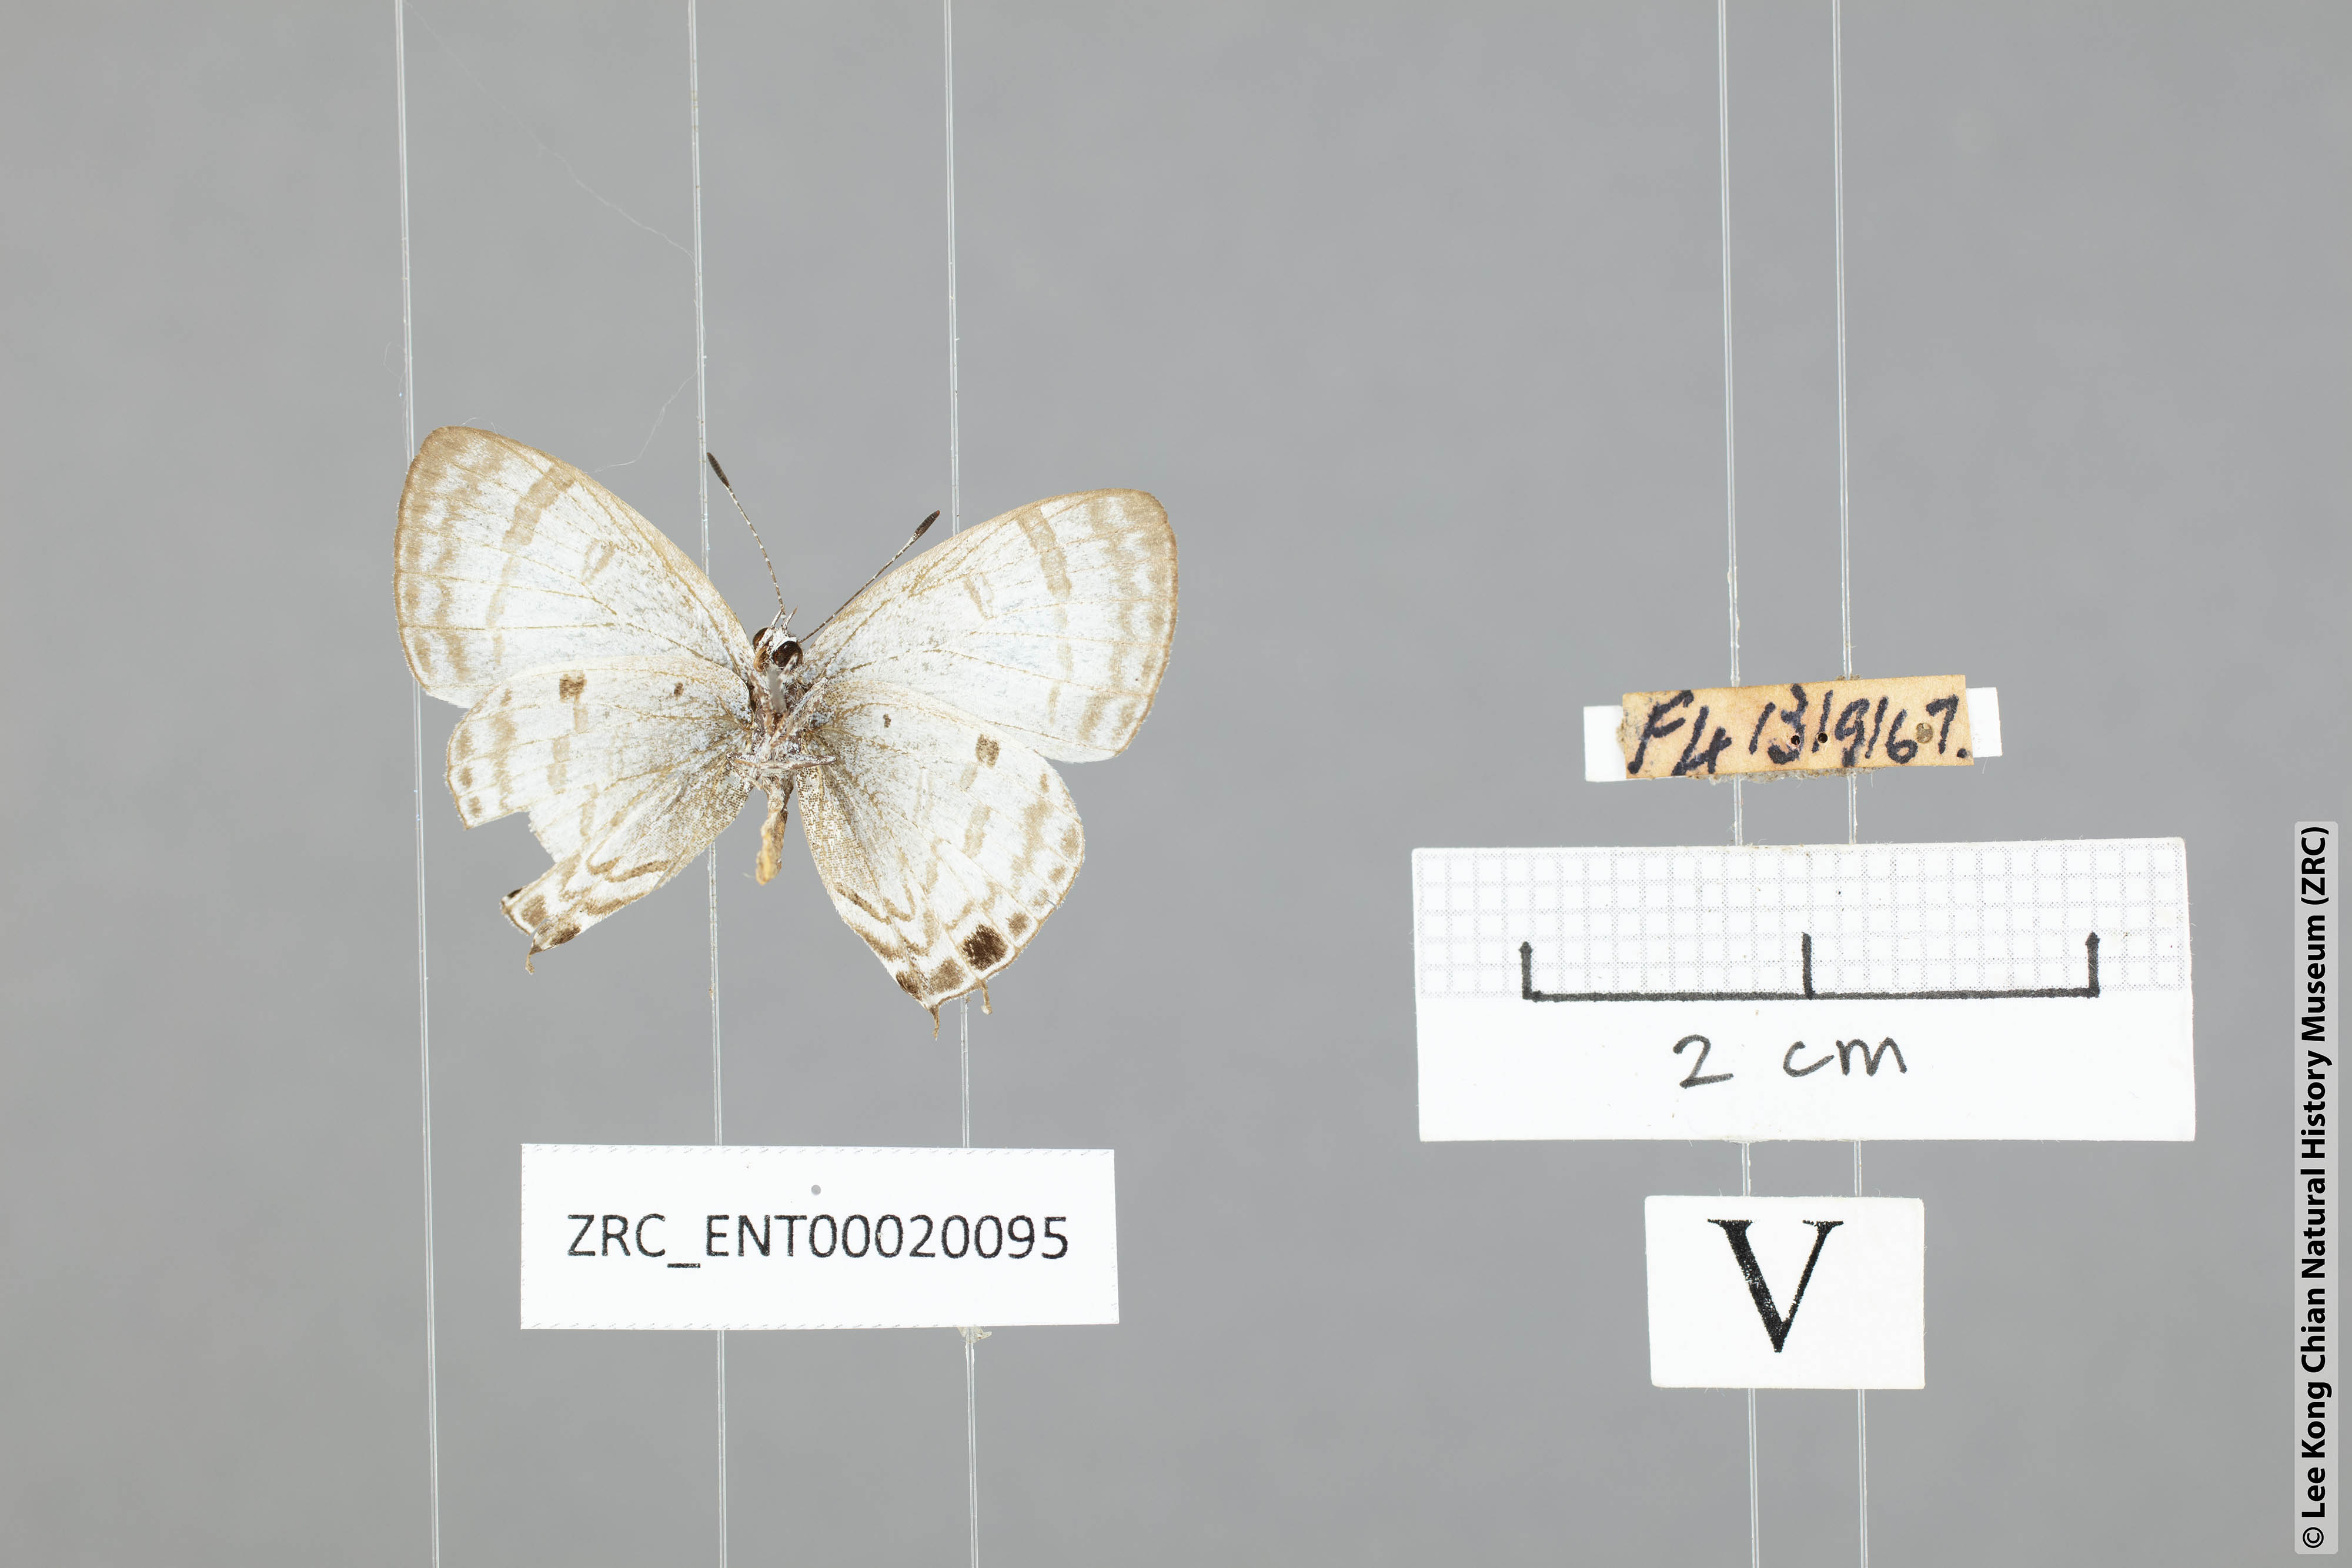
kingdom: Animalia
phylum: Arthropoda
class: Insecta
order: Lepidoptera
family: Lycaenidae
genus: Chliaria
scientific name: Chliaria kina
